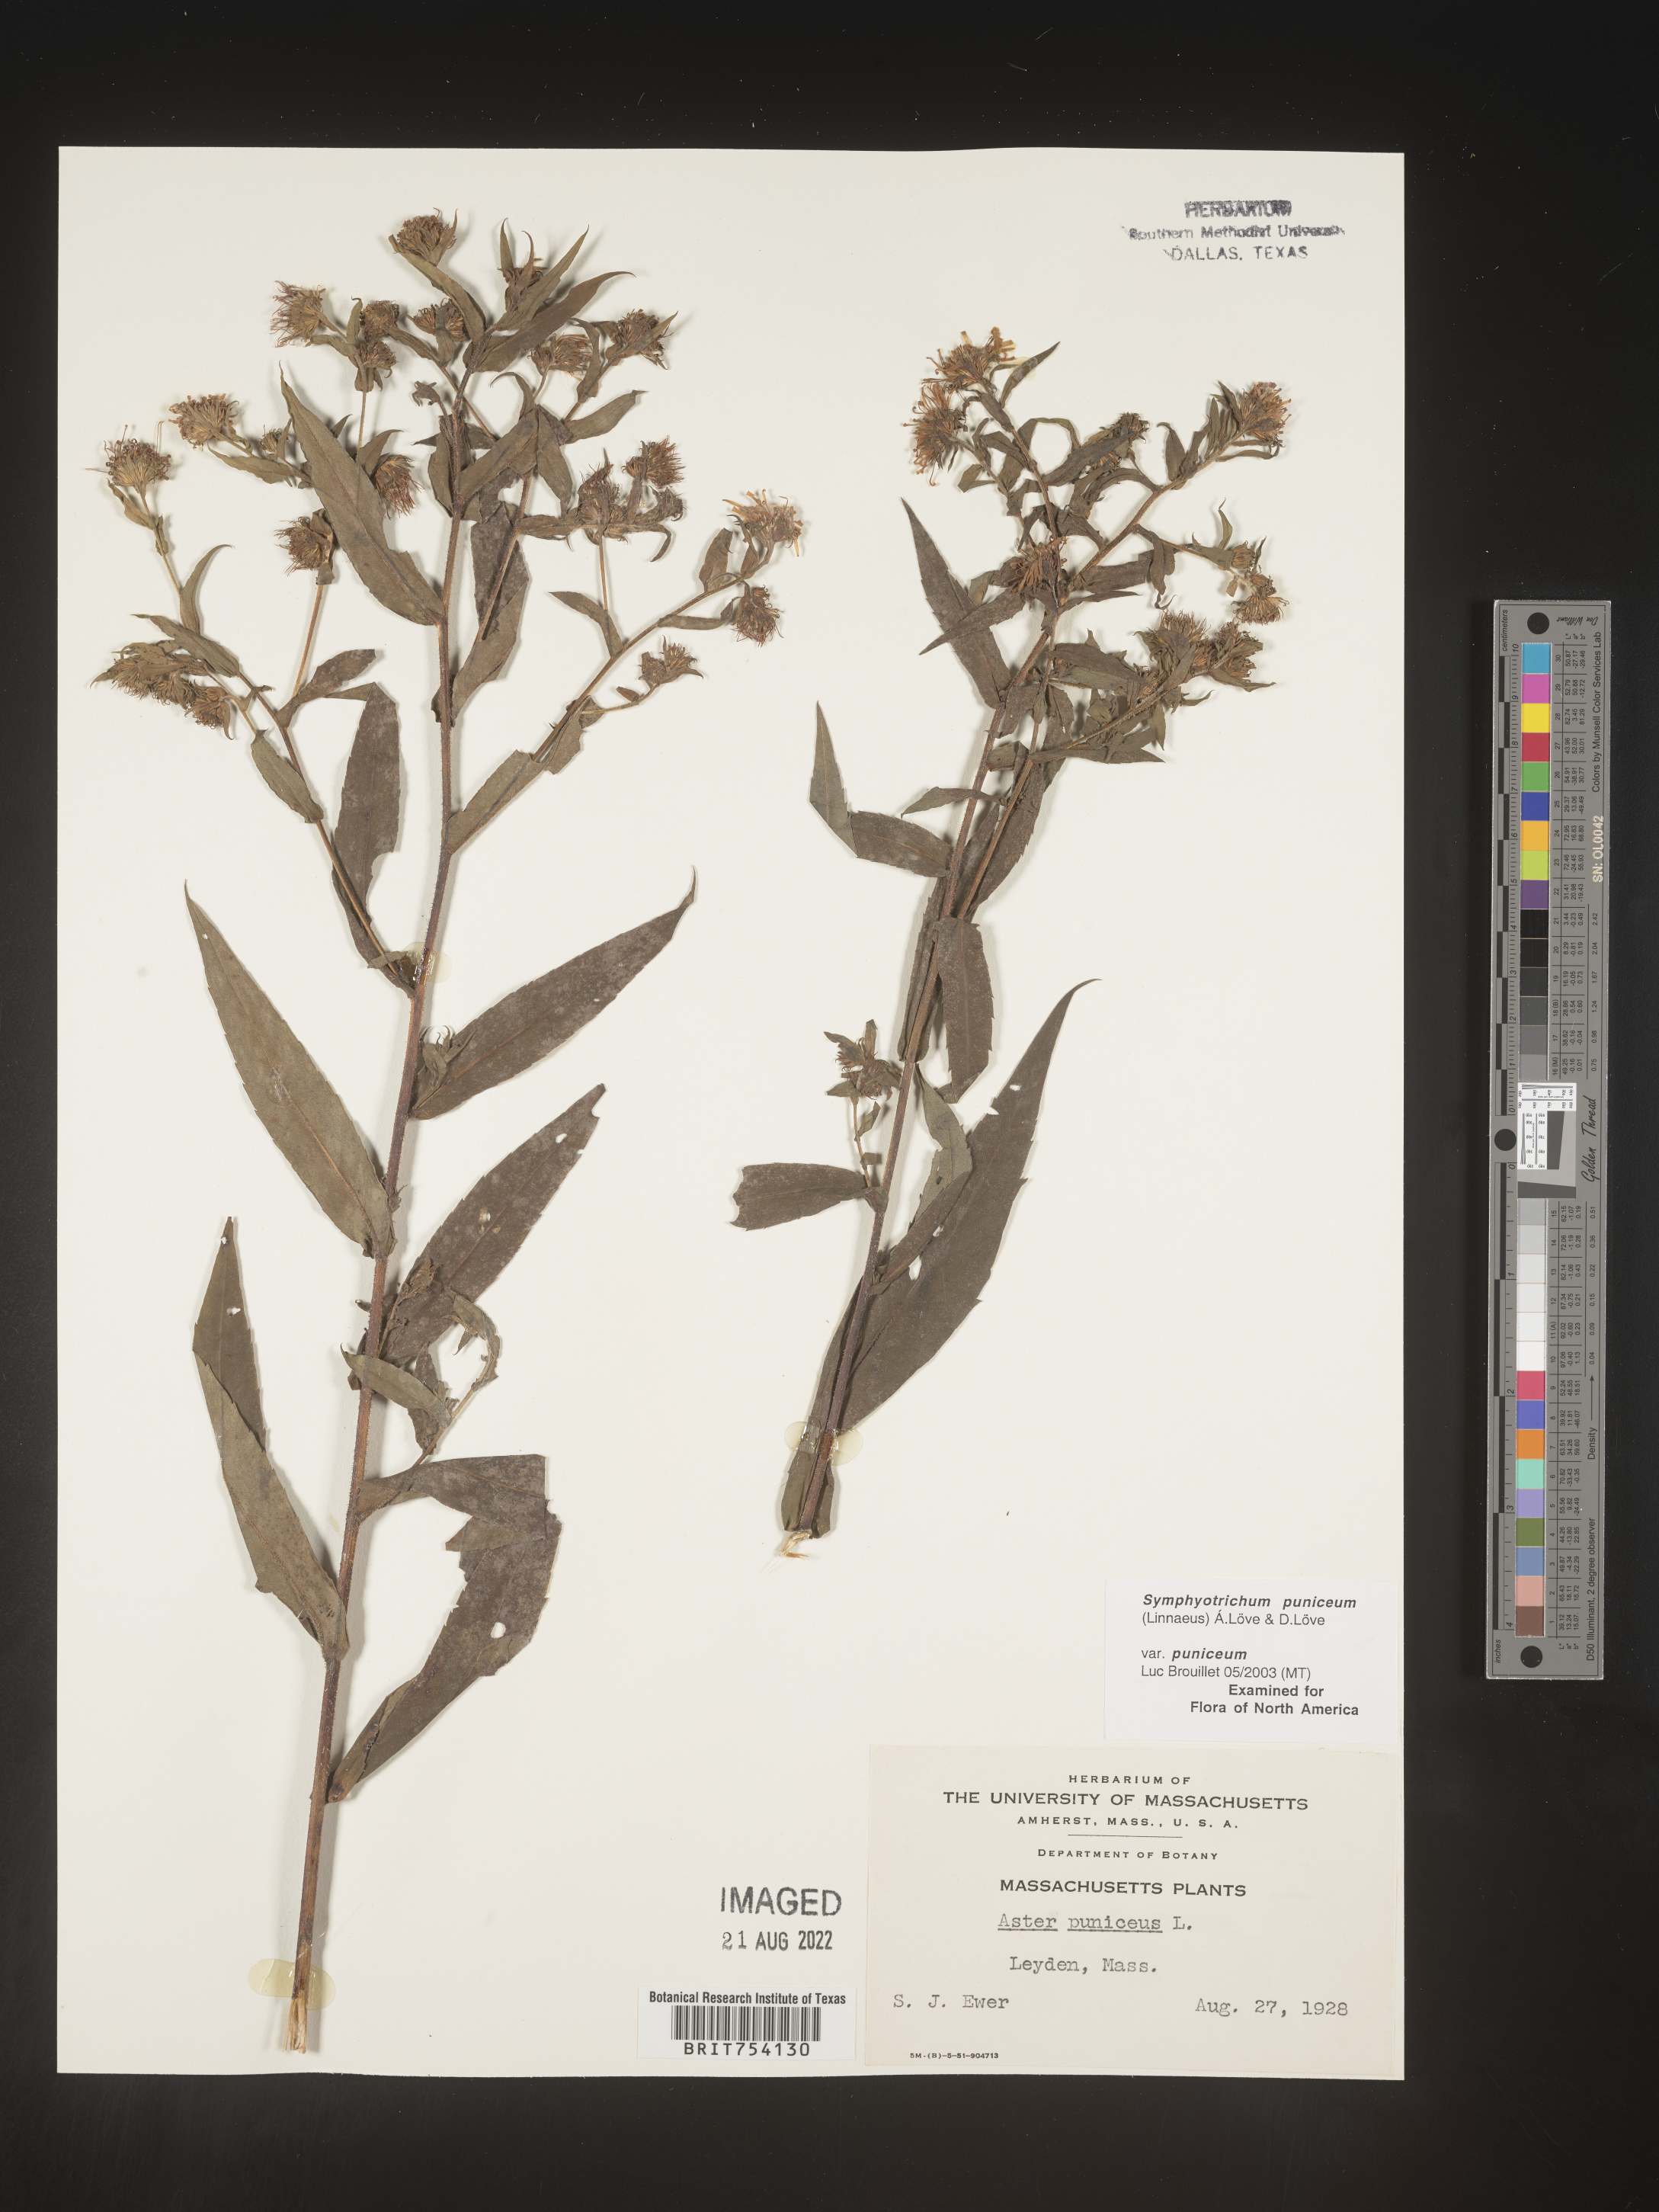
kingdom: Plantae
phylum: Tracheophyta
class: Magnoliopsida
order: Asterales
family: Asteraceae
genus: Symphyotrichum
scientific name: Symphyotrichum puniceum
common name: Bog aster
